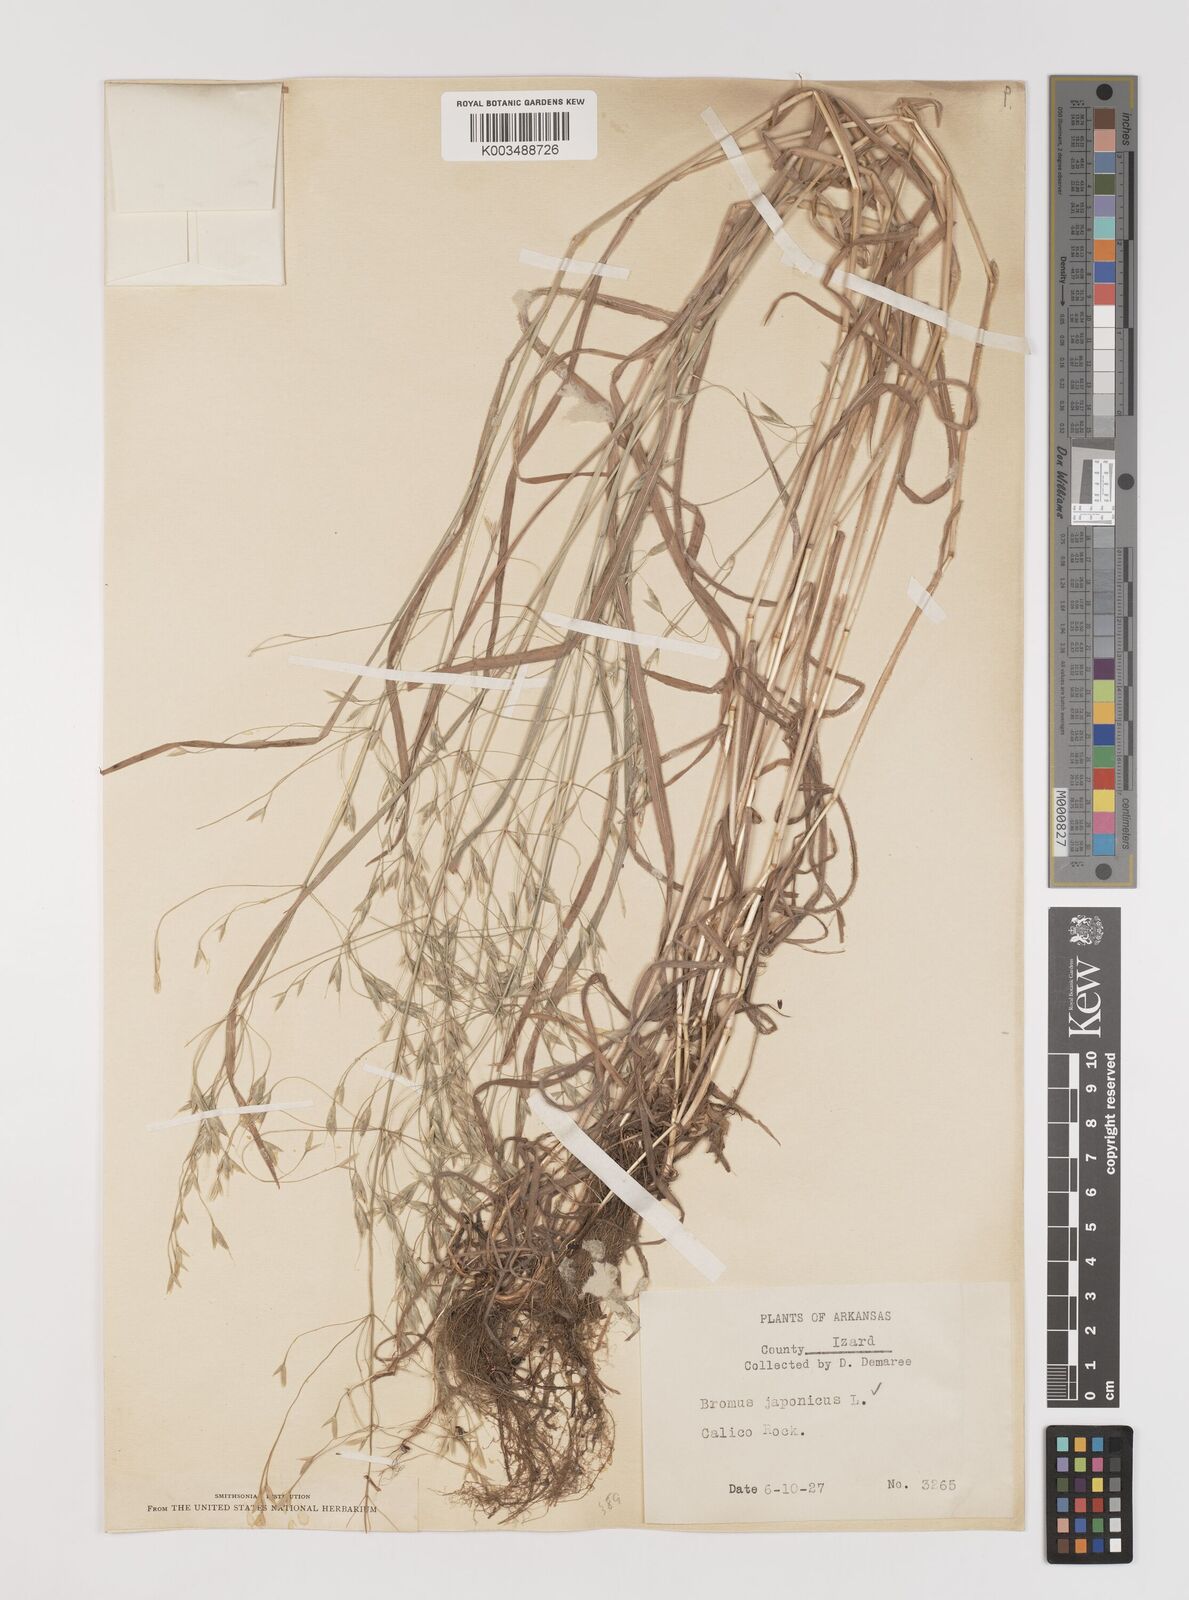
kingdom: Plantae
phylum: Tracheophyta
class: Liliopsida
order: Poales
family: Poaceae
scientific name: Poaceae
